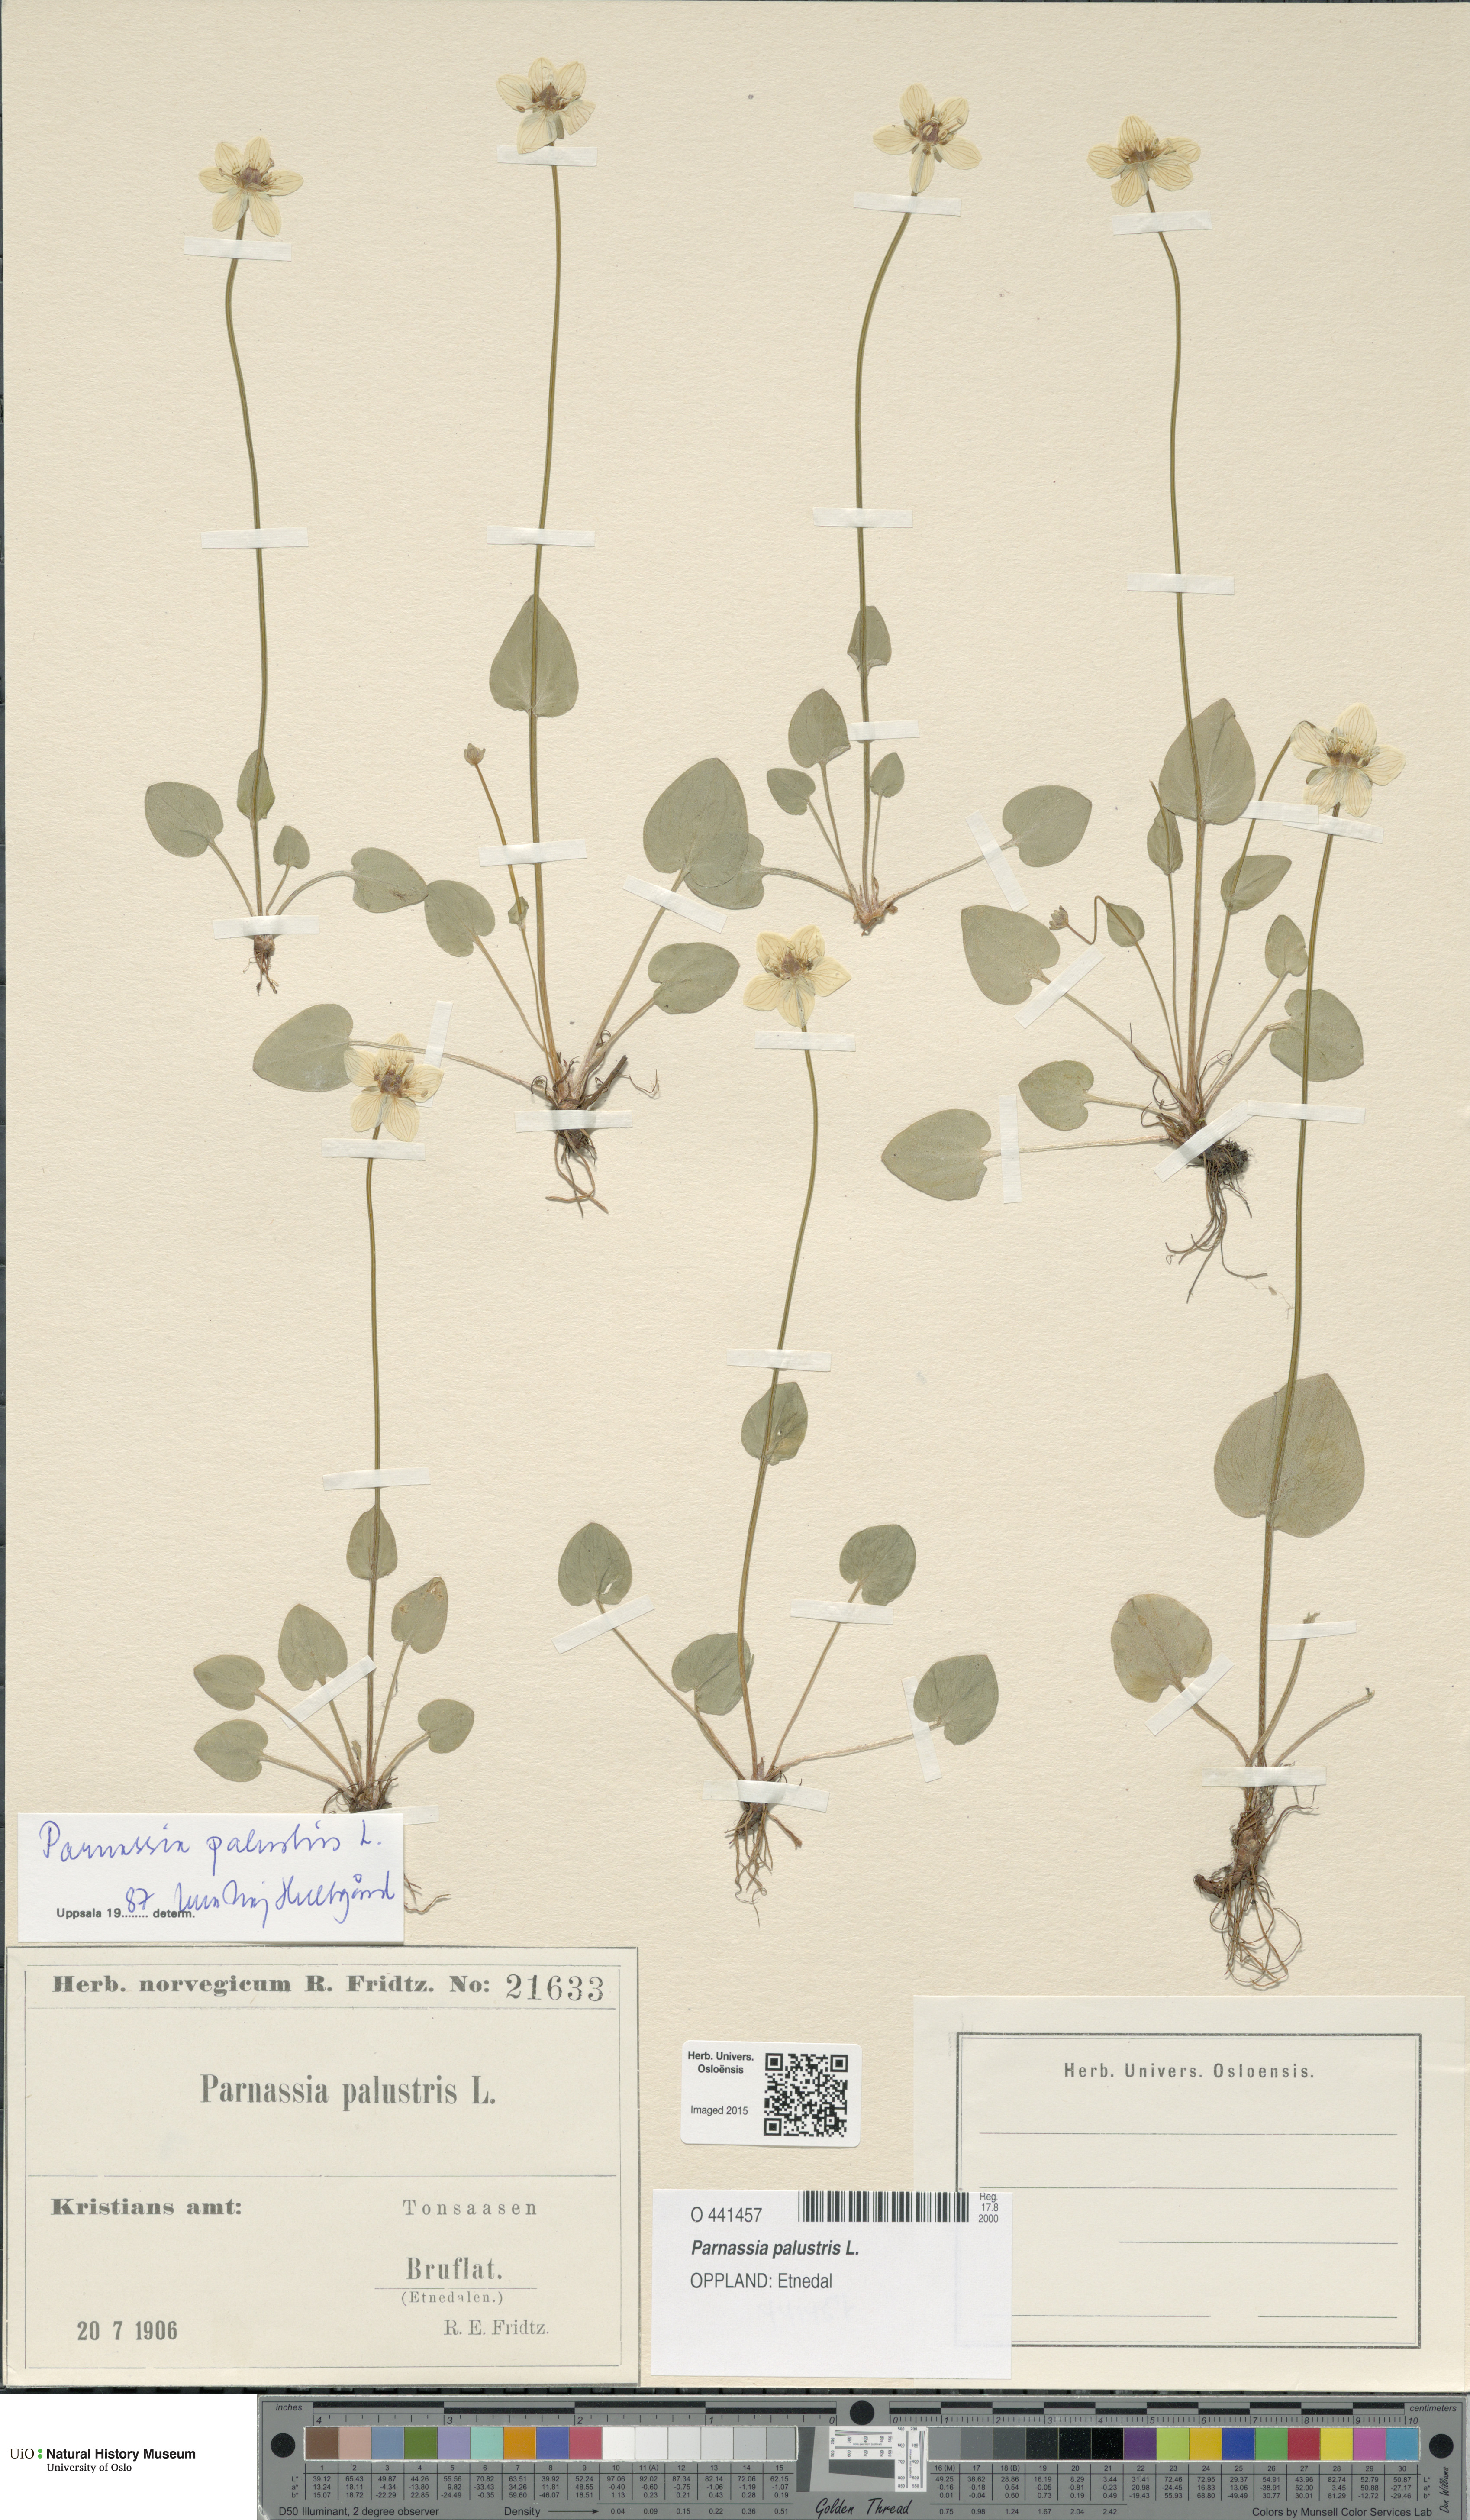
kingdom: Plantae
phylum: Tracheophyta
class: Magnoliopsida
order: Celastrales
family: Parnassiaceae
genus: Parnassia
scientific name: Parnassia palustris
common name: Grass-of-parnassus
